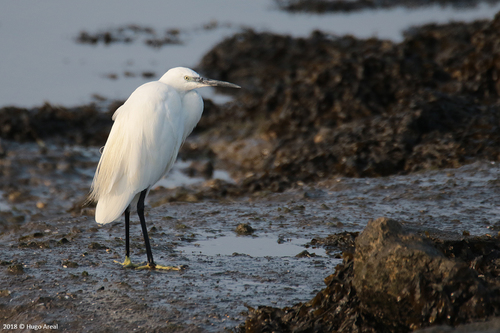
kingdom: Animalia
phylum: Chordata
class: Aves
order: Pelecaniformes
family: Ardeidae
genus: Egretta
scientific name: Egretta garzetta
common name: Little egret
